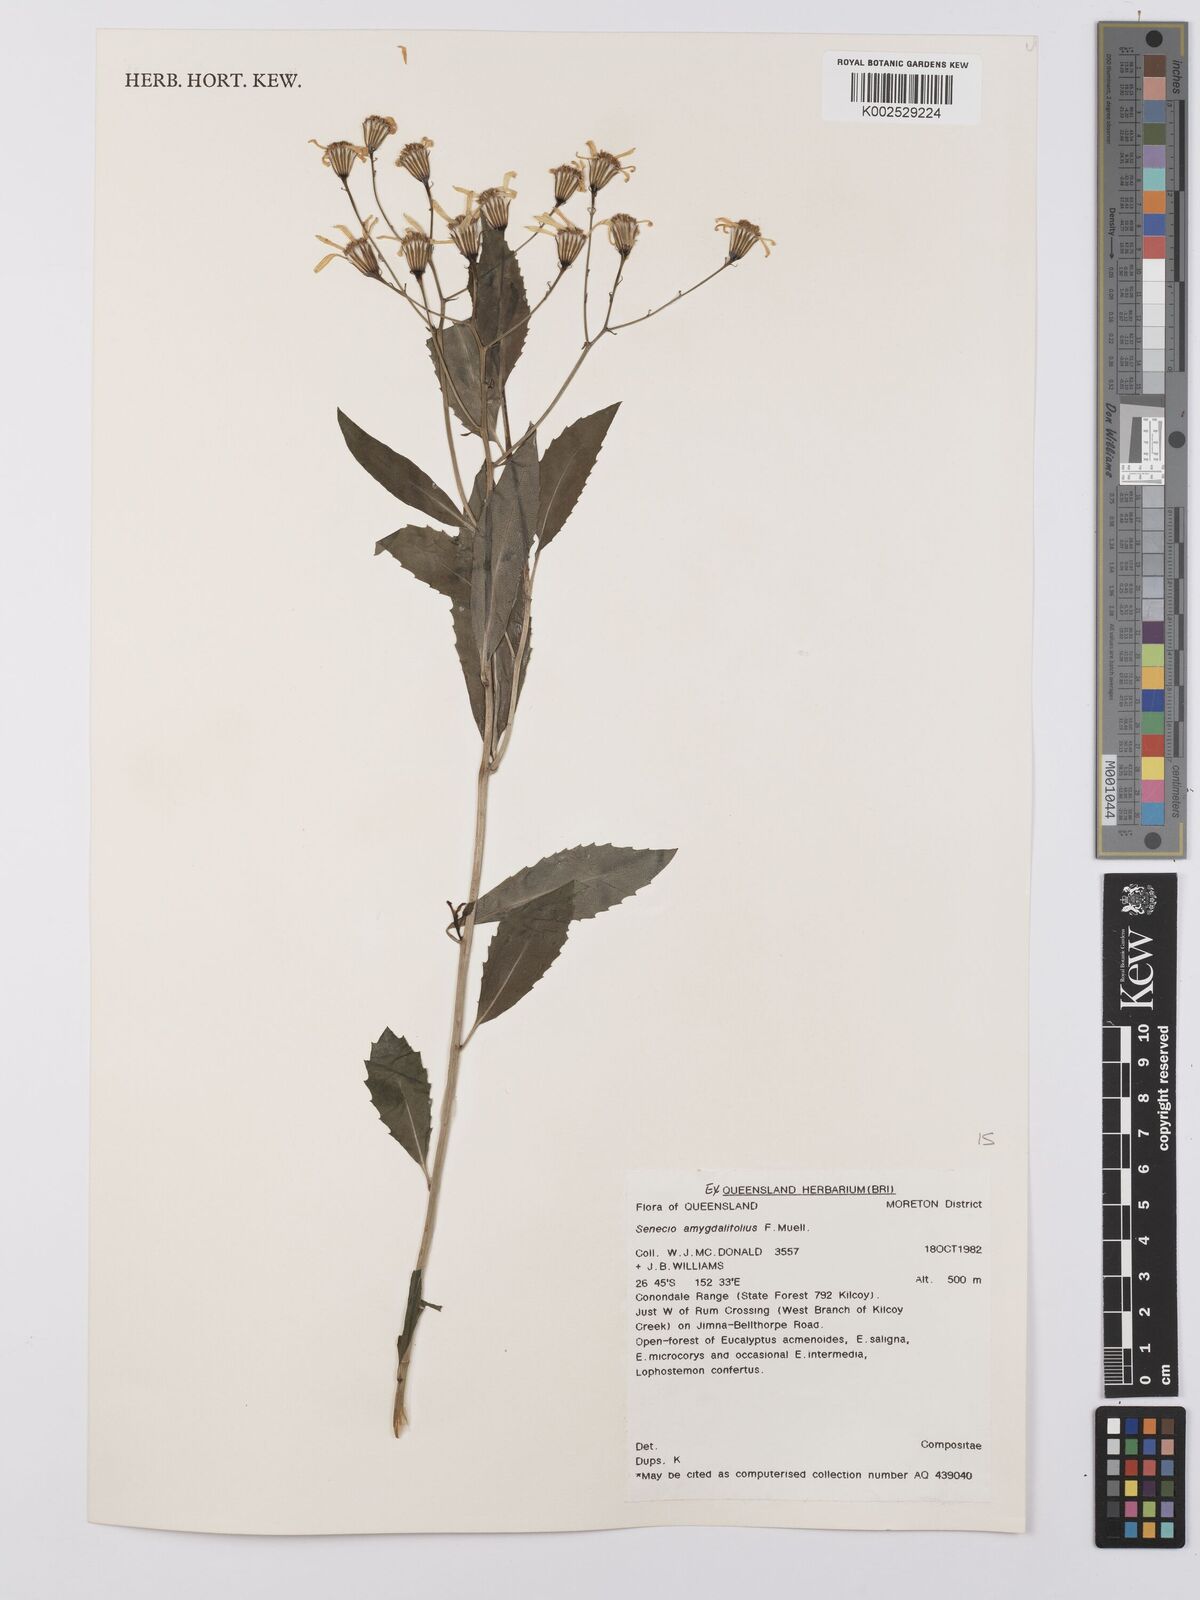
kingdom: Plantae
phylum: Tracheophyta
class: Magnoliopsida
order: Asterales
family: Asteraceae
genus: Lordhowea
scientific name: Lordhowea amygdalifolia
